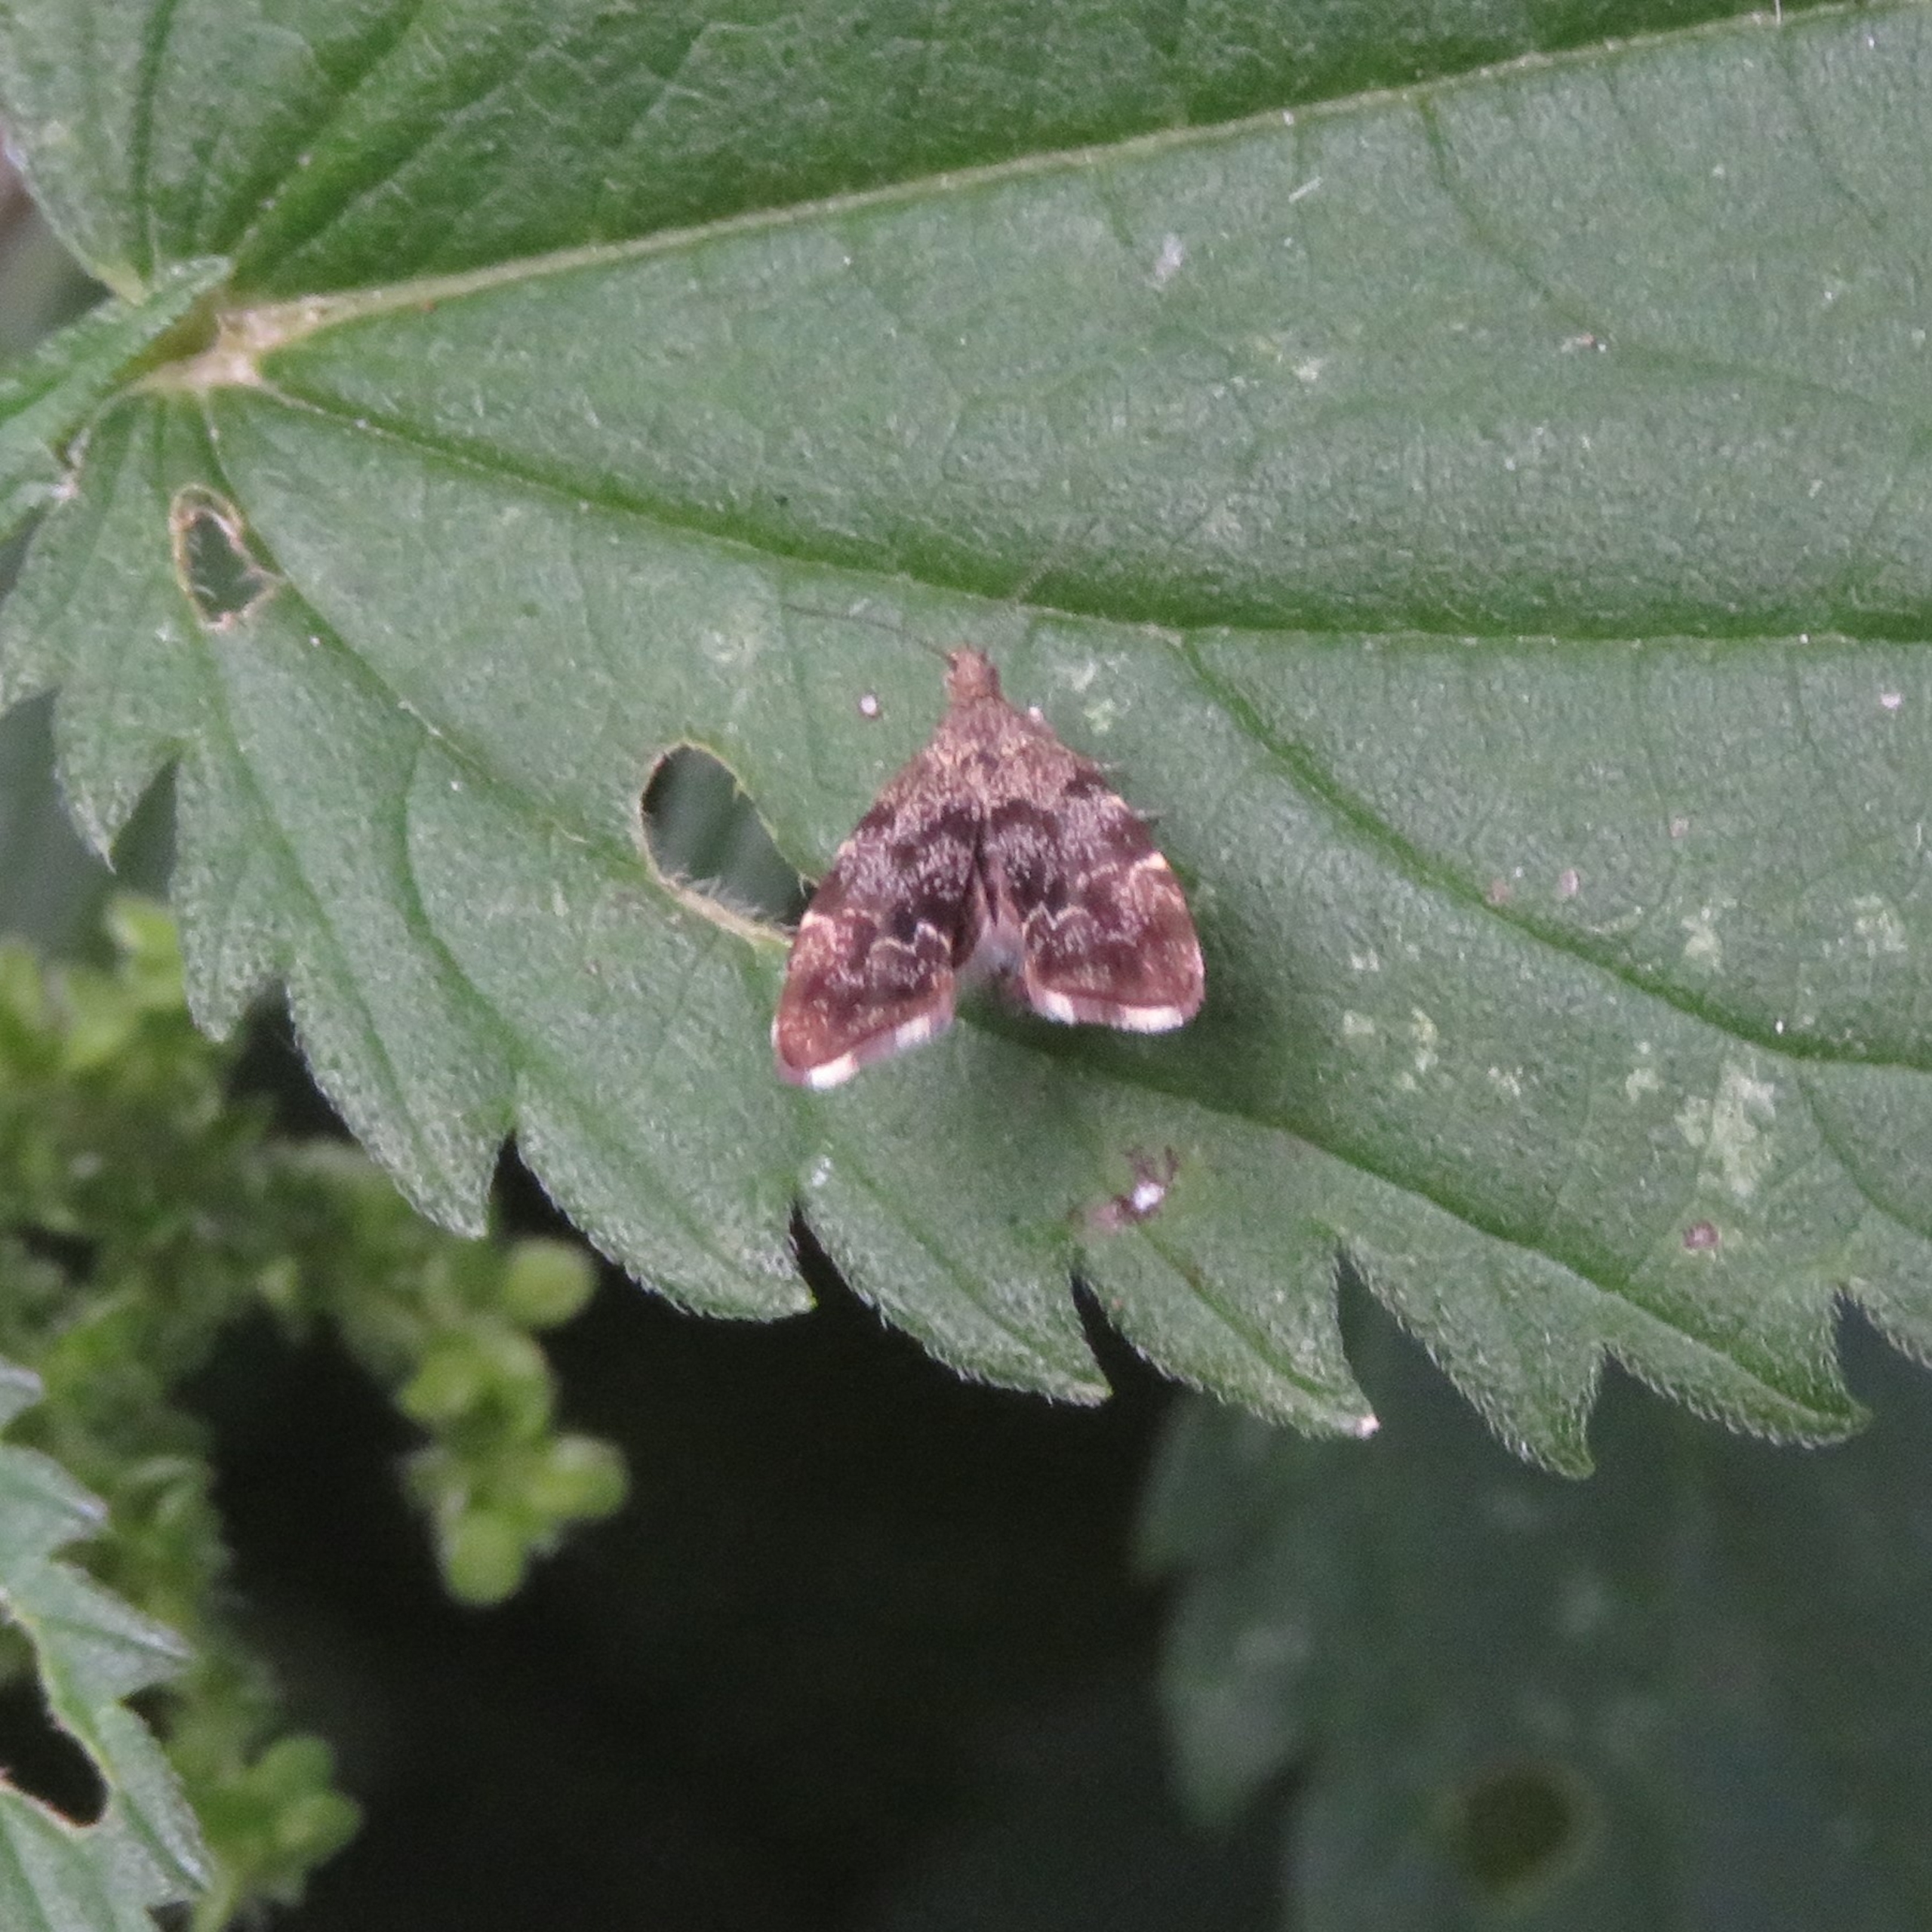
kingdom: Animalia
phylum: Arthropoda
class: Insecta
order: Lepidoptera
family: Choreutidae
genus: Anthophila
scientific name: Anthophila fabriciana
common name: Bredvinget nældevikler
